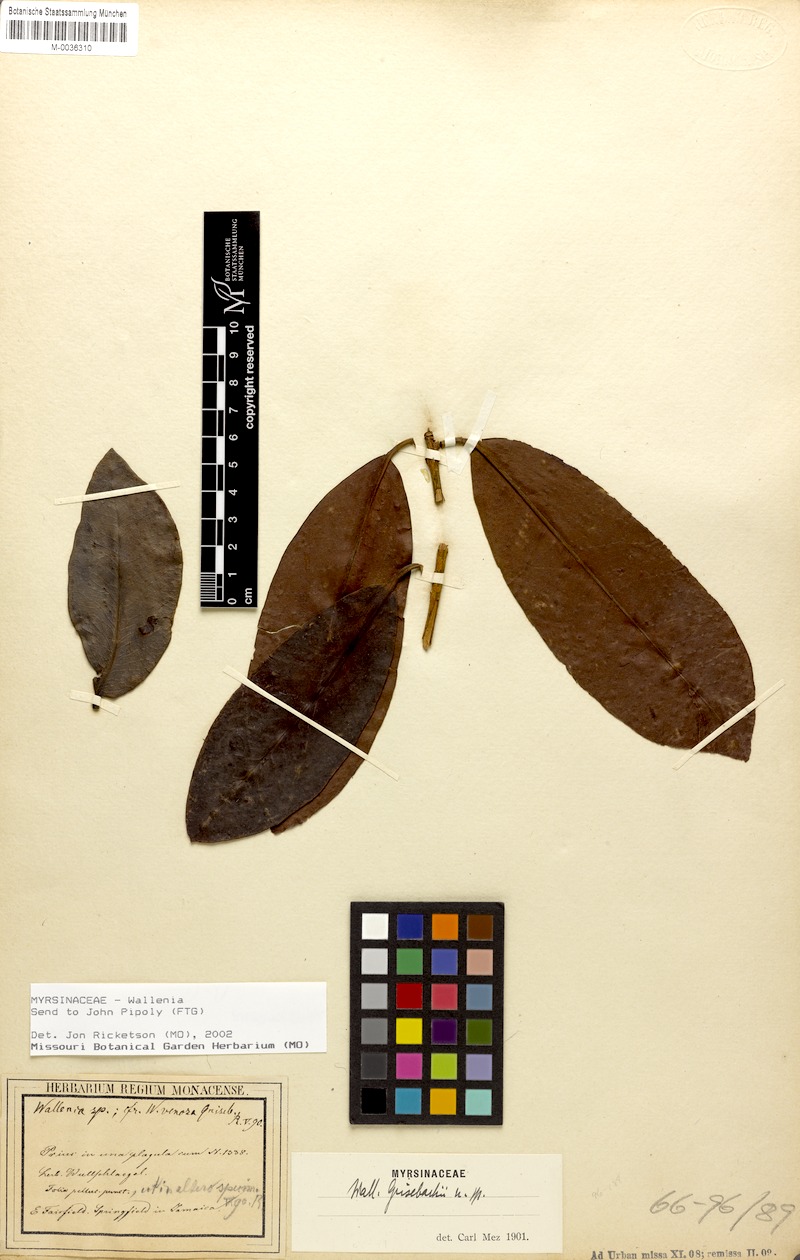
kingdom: Plantae
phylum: Tracheophyta
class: Magnoliopsida
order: Ericales
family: Primulaceae
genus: Wallenia
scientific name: Wallenia elliptica
